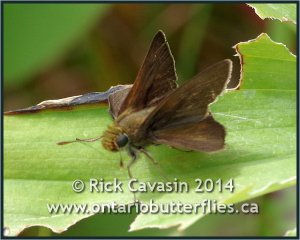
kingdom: Animalia
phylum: Arthropoda
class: Insecta
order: Lepidoptera
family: Hesperiidae
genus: Euphyes
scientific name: Euphyes vestris
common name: Dun Skipper
